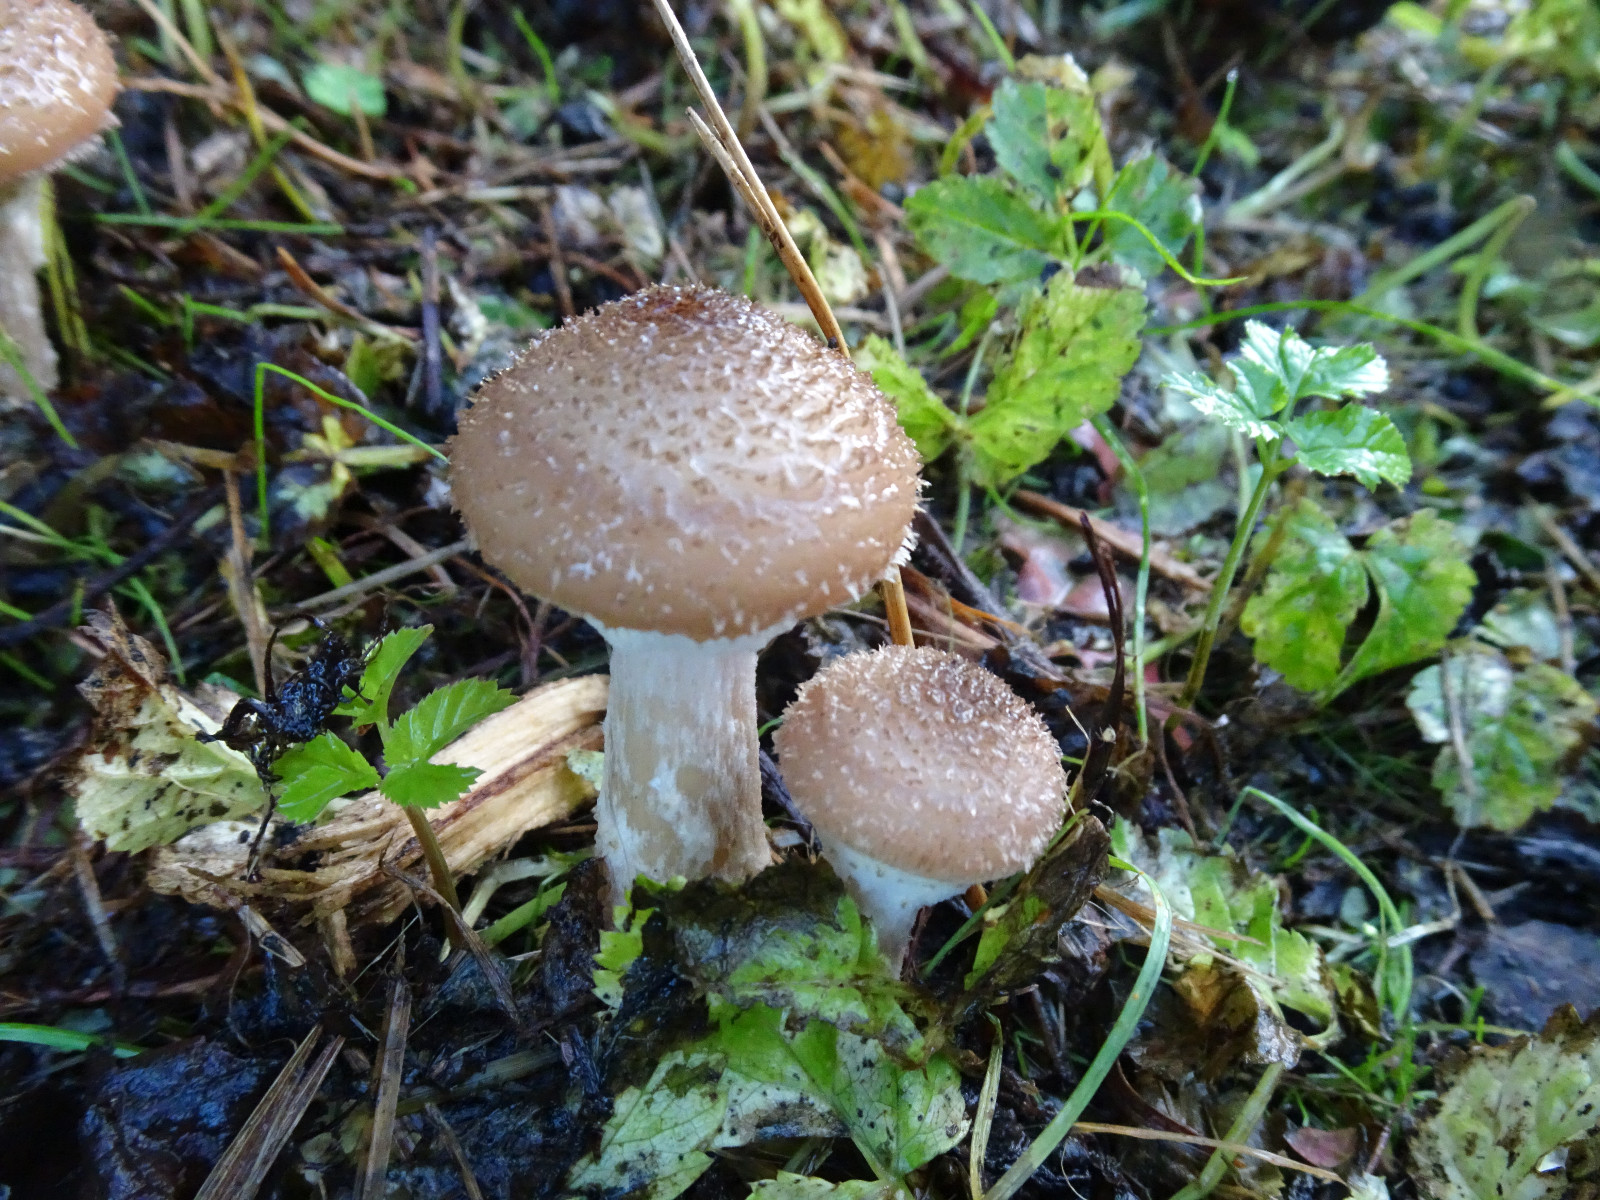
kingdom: Fungi
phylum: Basidiomycota
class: Agaricomycetes
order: Agaricales
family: Physalacriaceae
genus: Armillaria
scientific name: Armillaria lutea
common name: køllestokket honningsvamp
